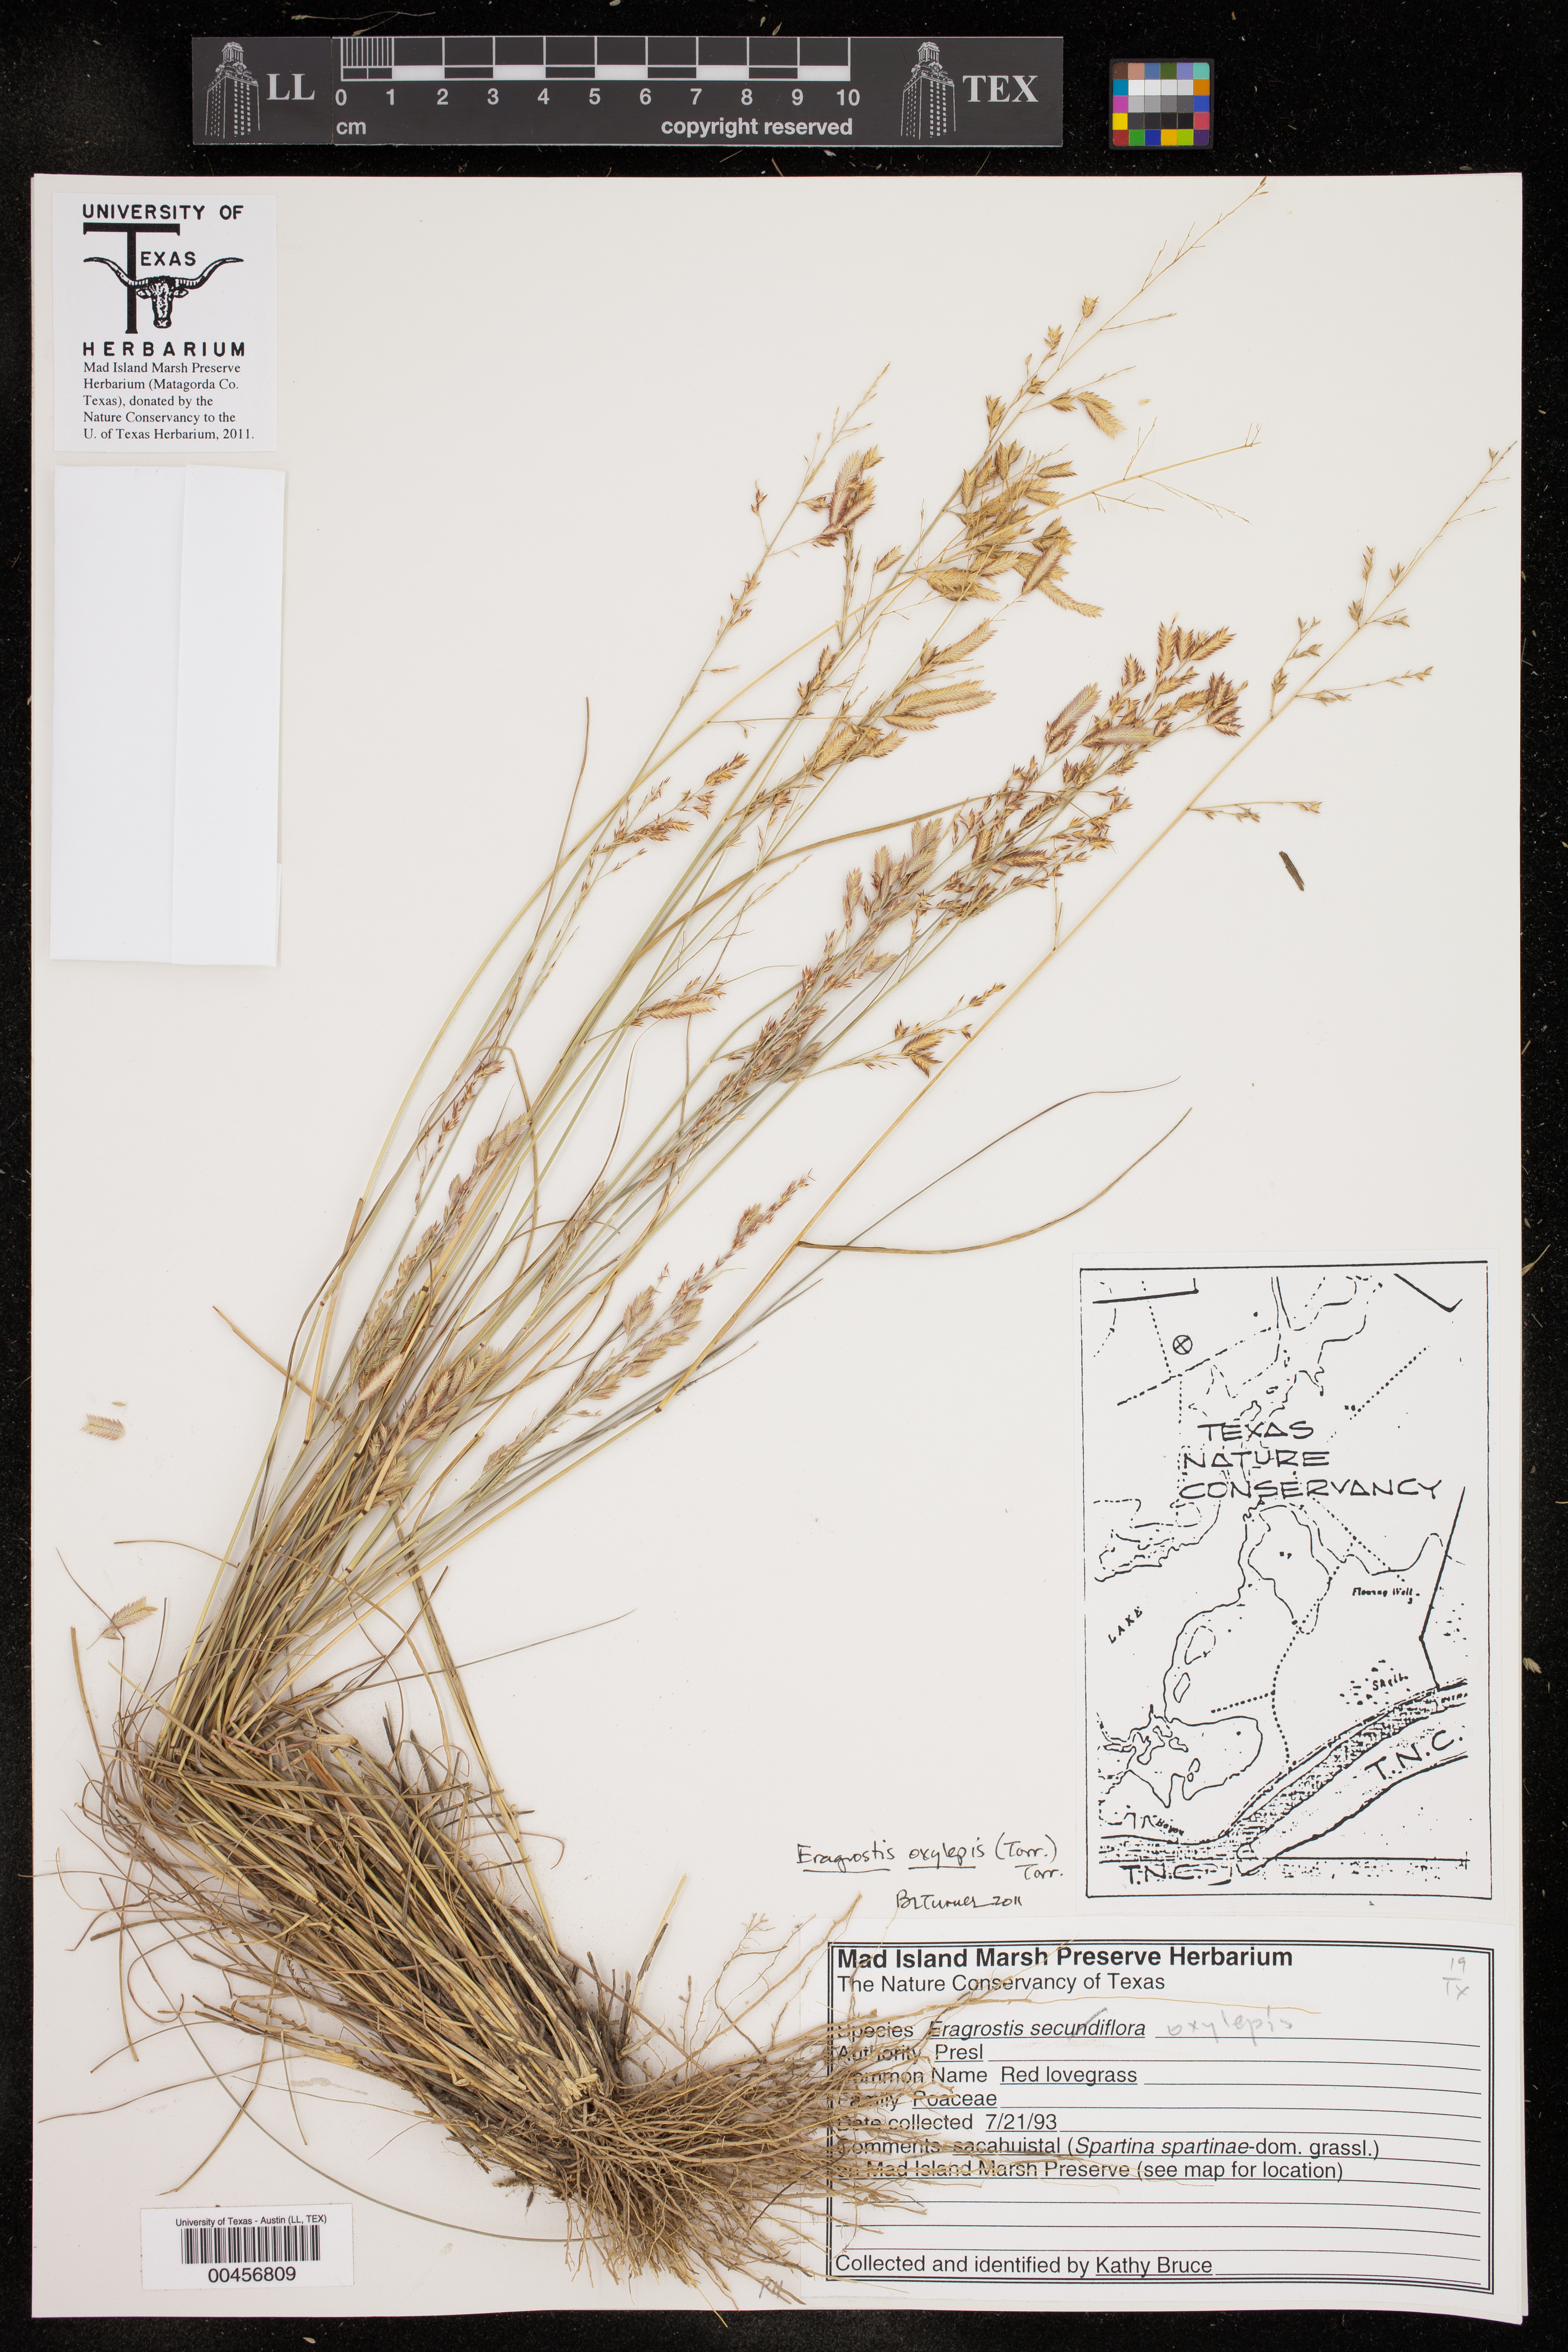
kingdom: Plantae
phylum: Tracheophyta
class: Liliopsida
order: Poales
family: Poaceae
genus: Eragrostis
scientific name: Eragrostis secundiflora
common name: Red love grass
